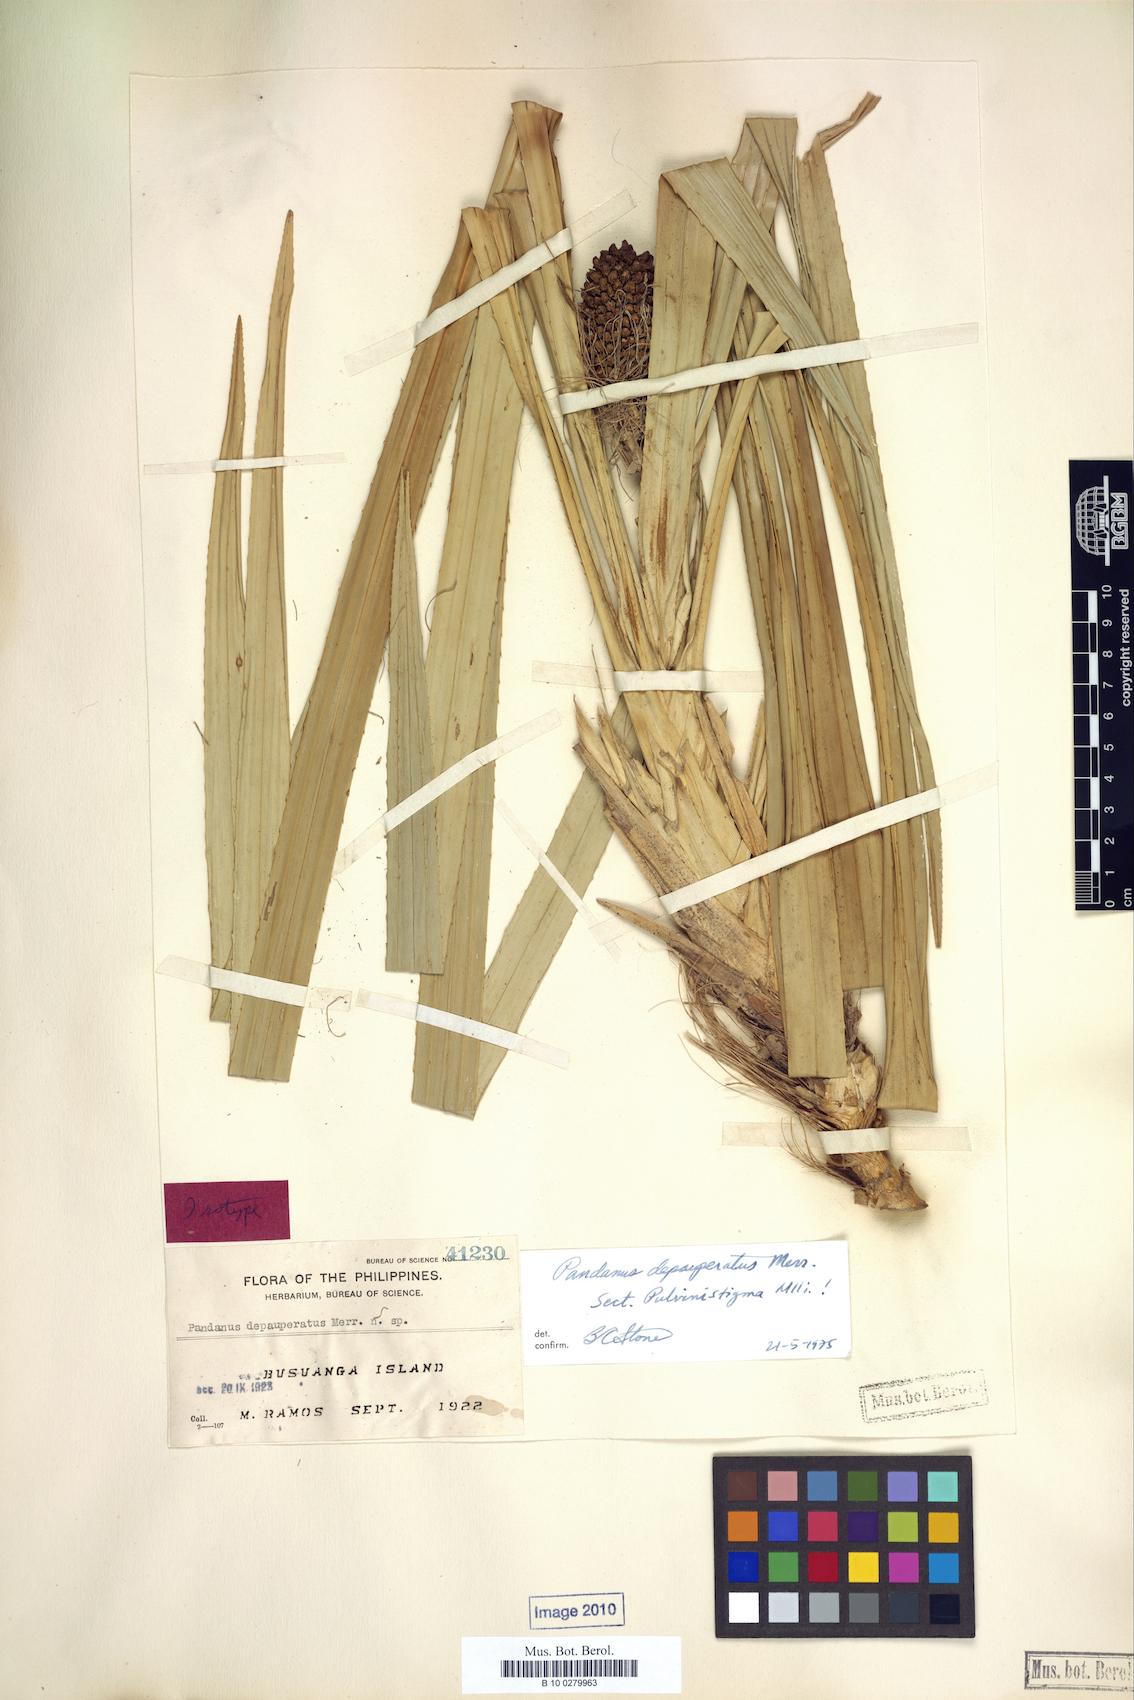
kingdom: Plantae
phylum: Tracheophyta
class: Liliopsida
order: Pandanales
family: Pandanaceae
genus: Pandanus
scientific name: Pandanus depauperatus
